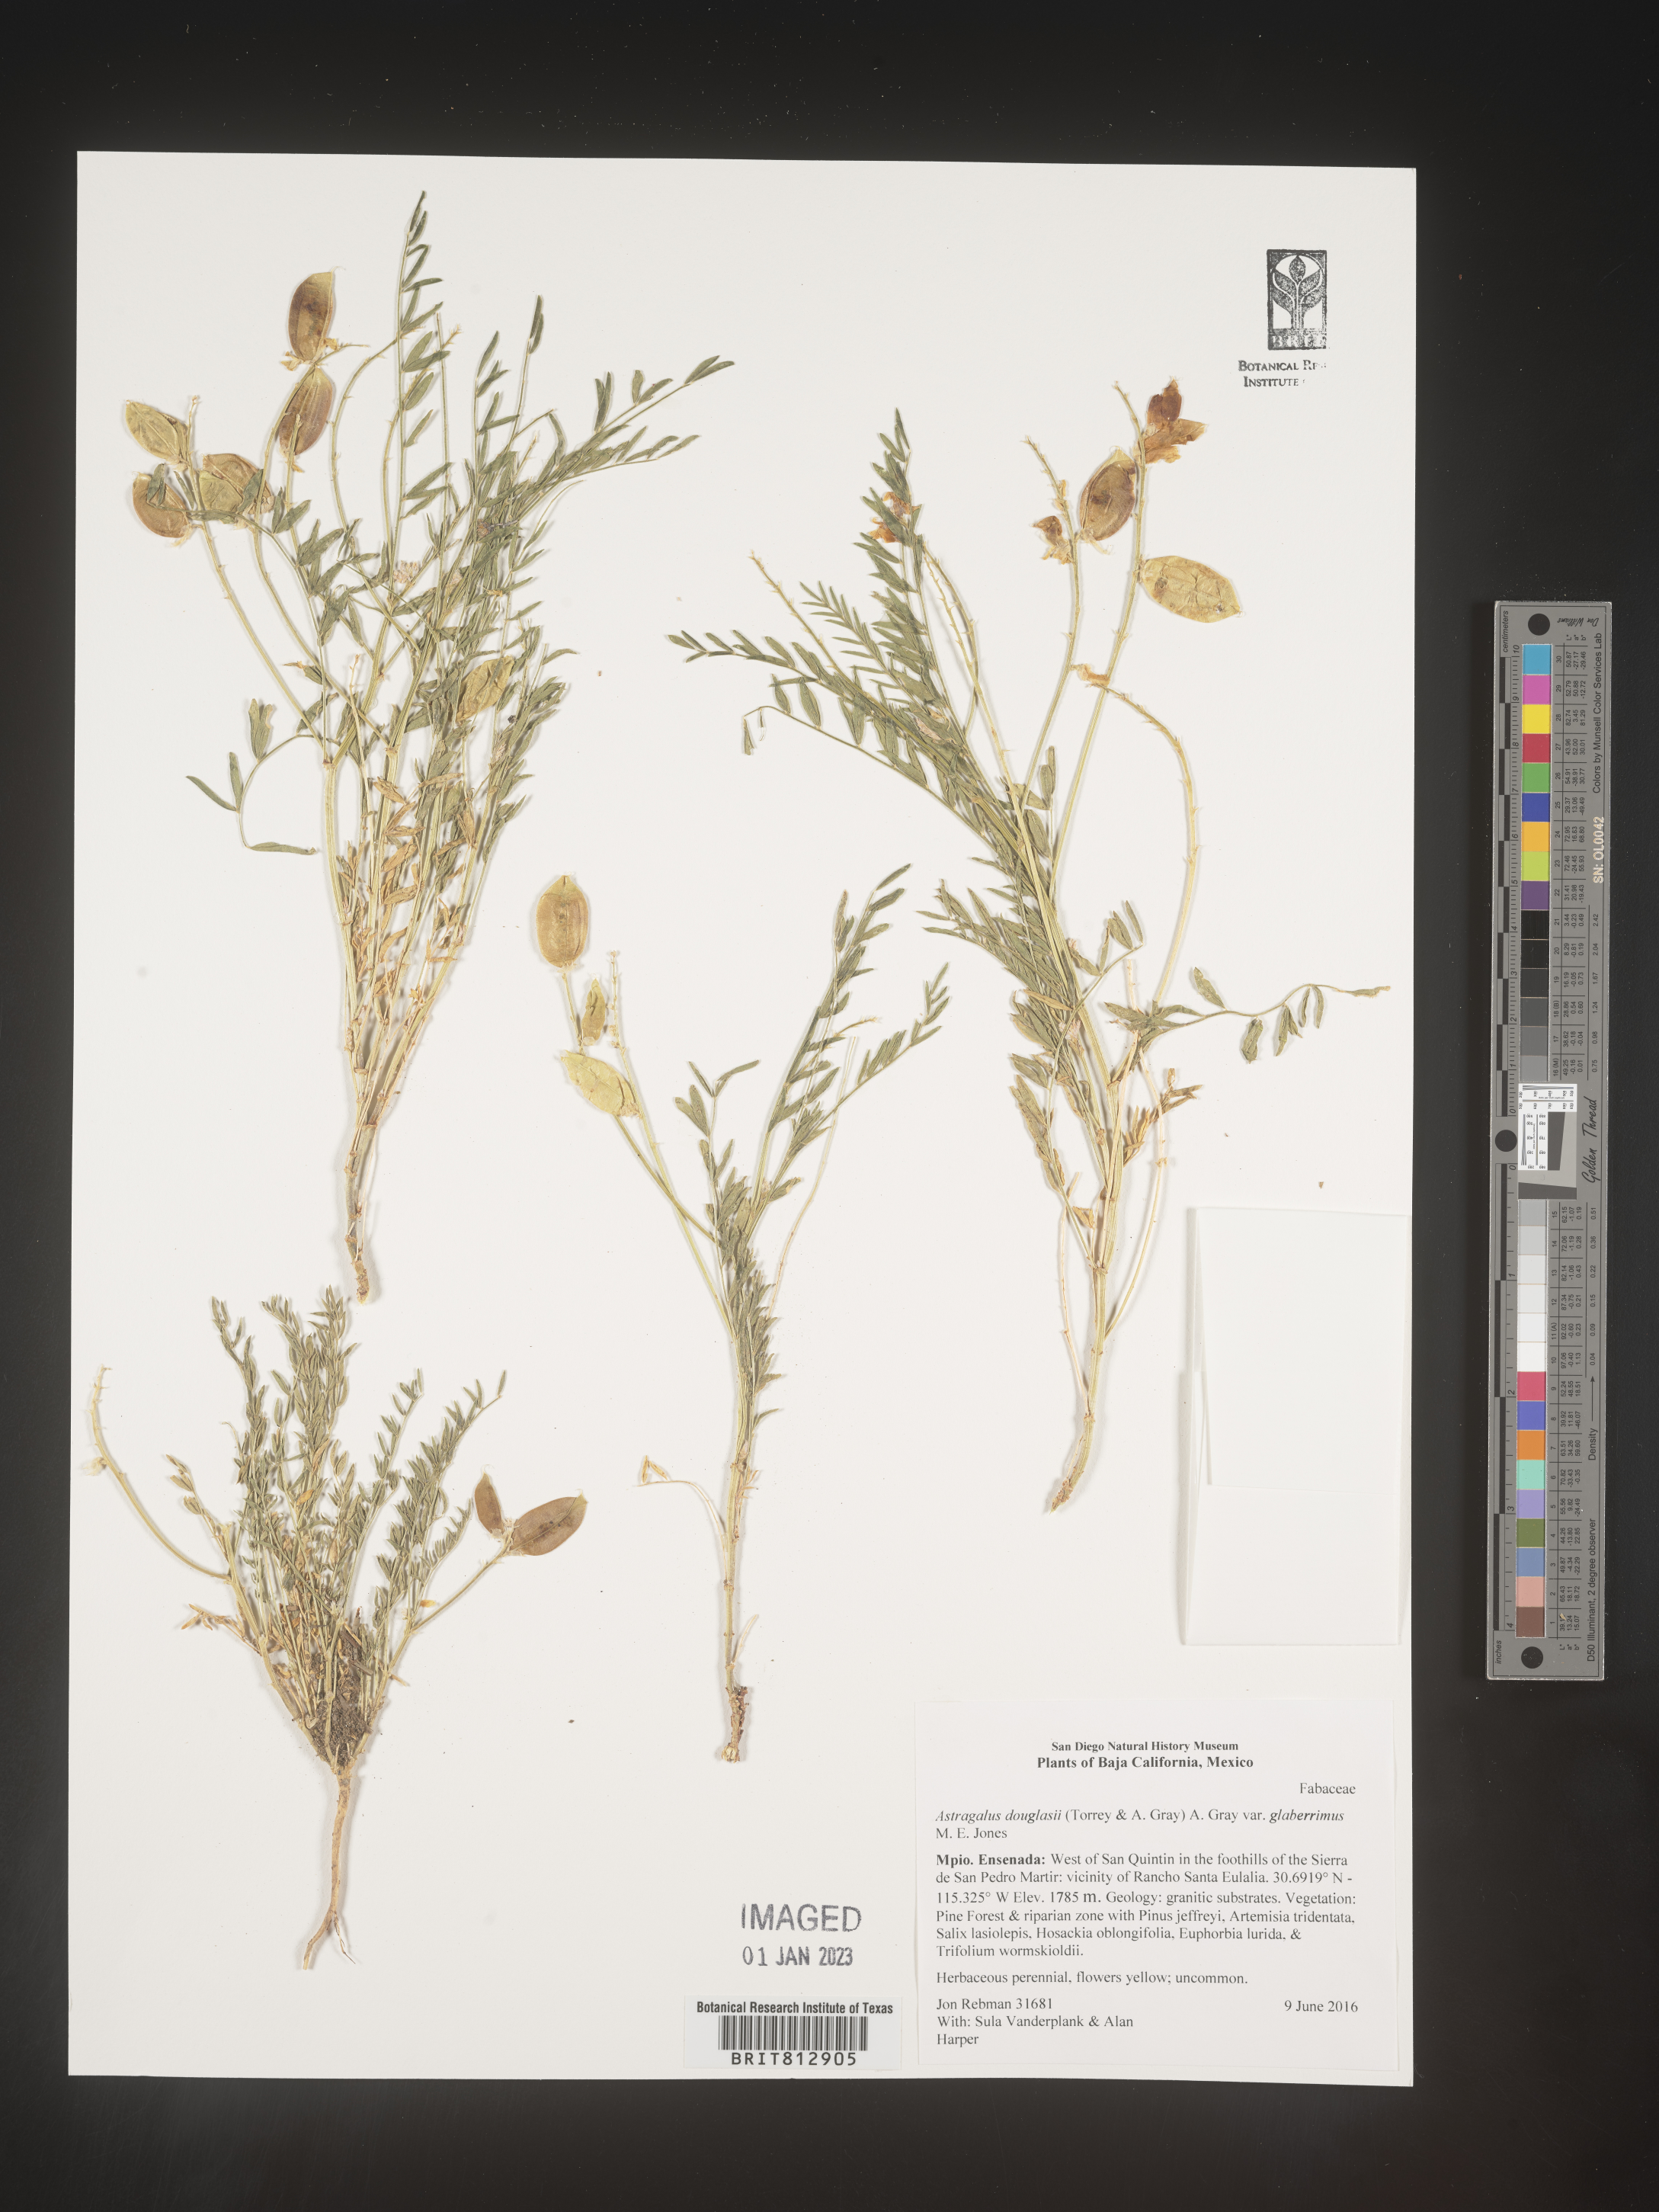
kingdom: Plantae
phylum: Tracheophyta
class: Magnoliopsida
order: Fabales
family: Fabaceae
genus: Astragalus
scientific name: Astragalus
